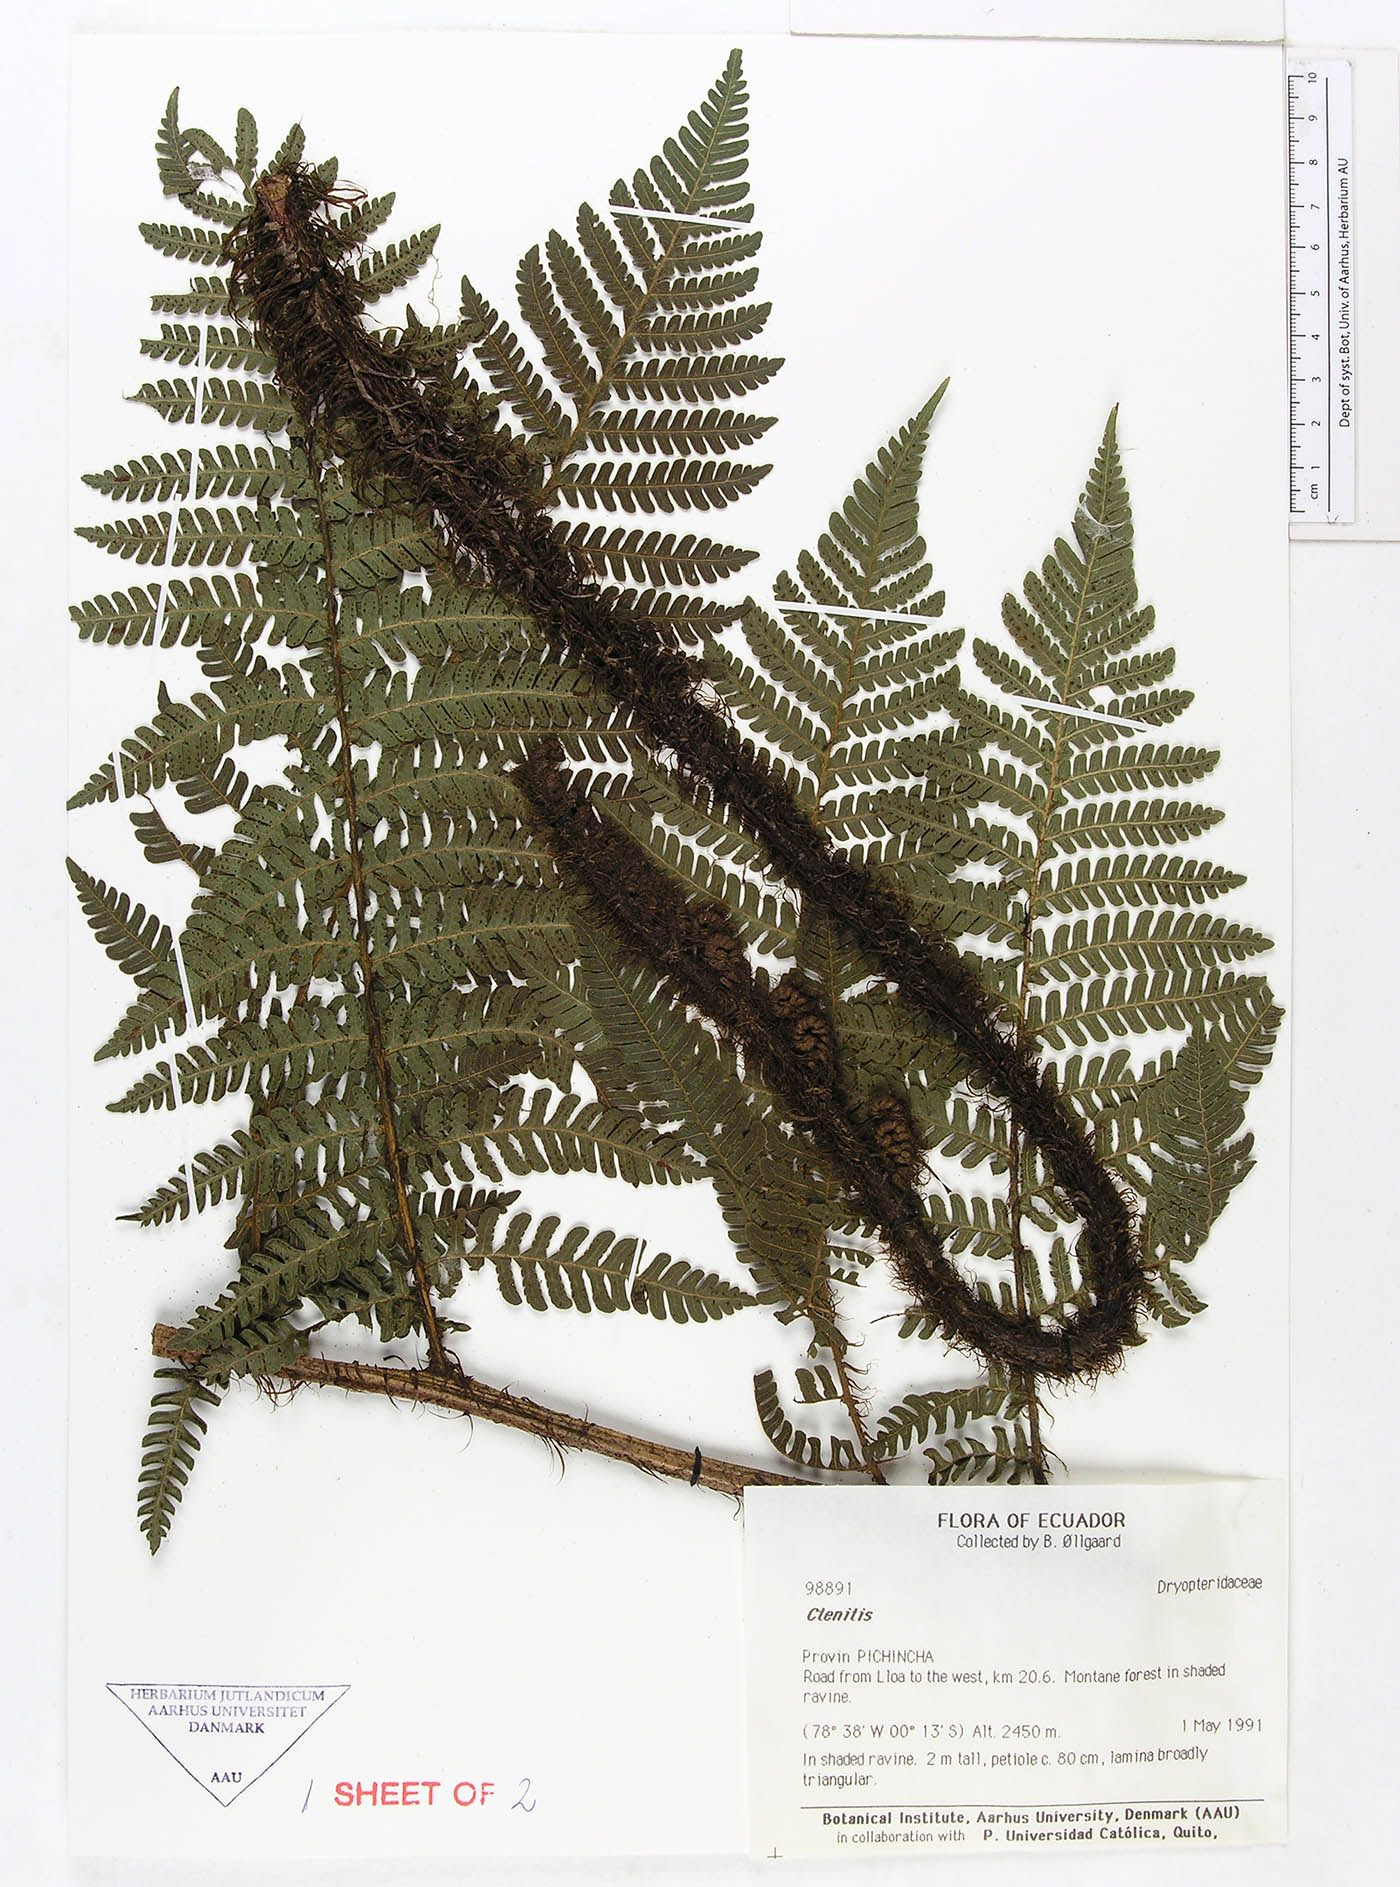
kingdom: Plantae
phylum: Tracheophyta
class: Polypodiopsida
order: Polypodiales
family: Dryopteridaceae
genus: Megalastrum
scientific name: Megalastrum mollicomum
